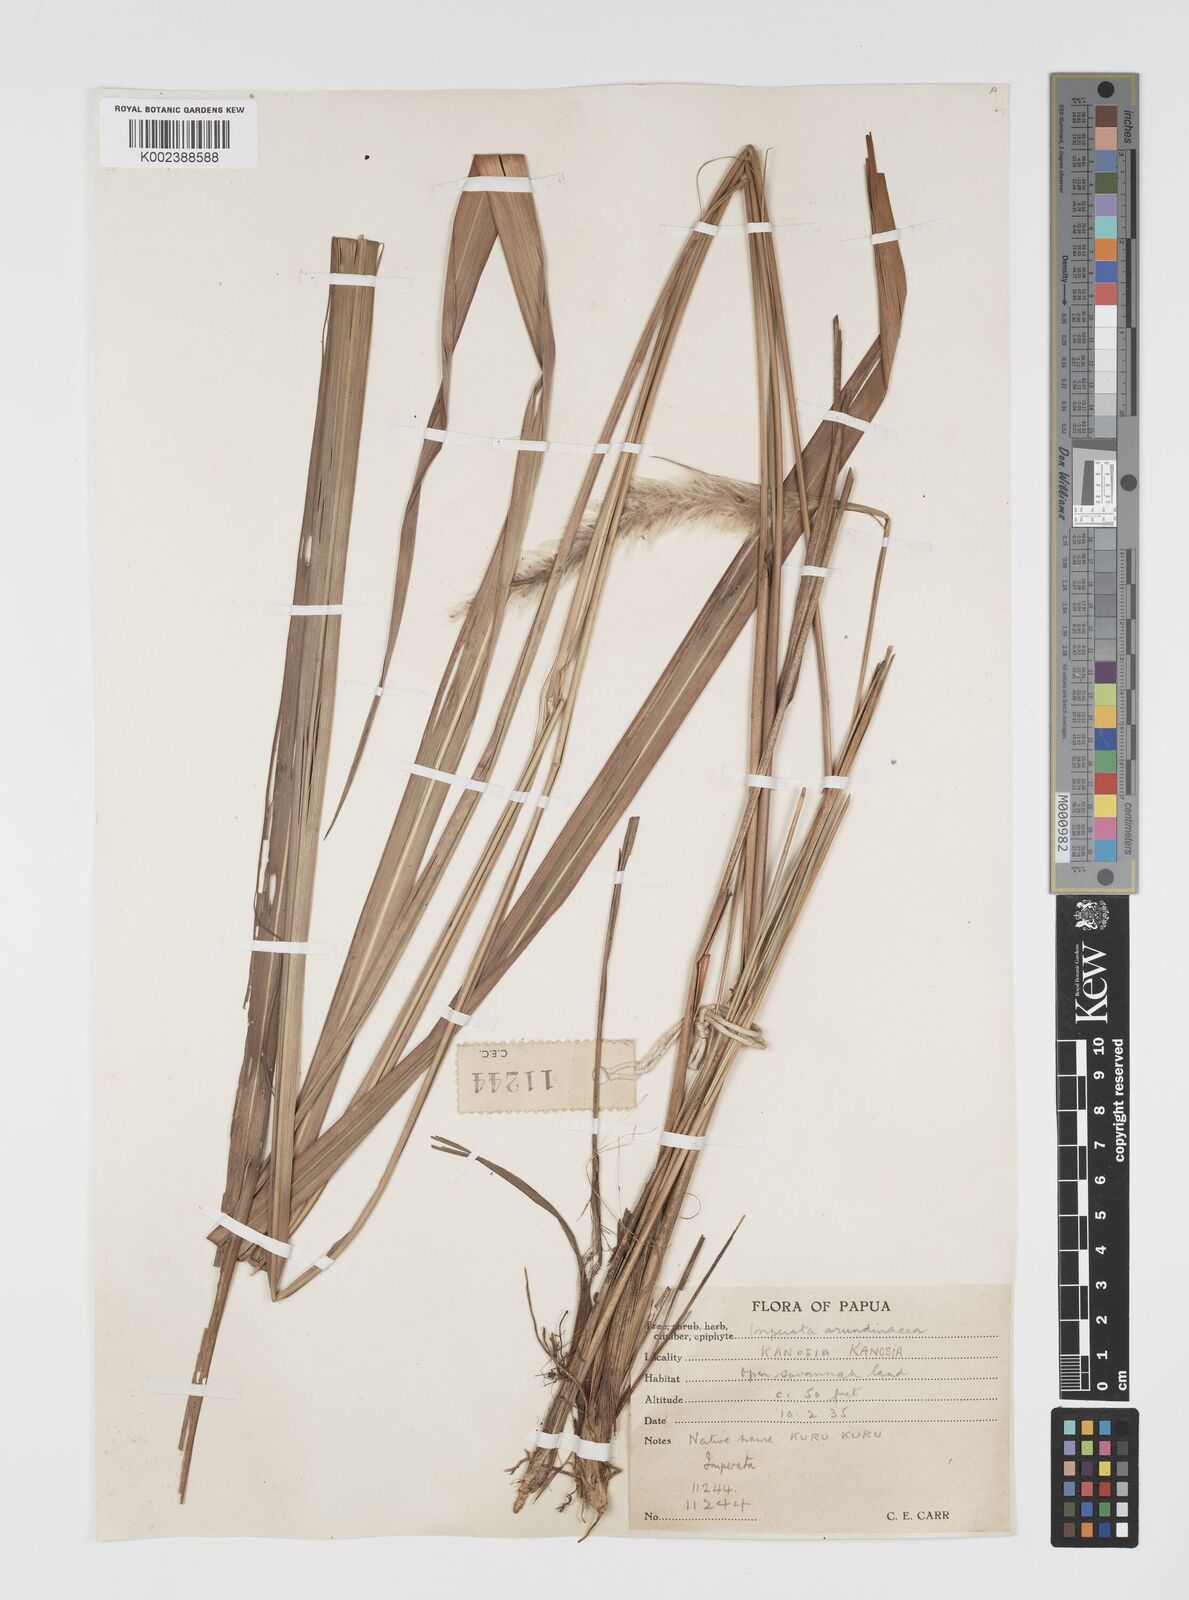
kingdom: Plantae
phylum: Tracheophyta
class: Liliopsida
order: Poales
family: Poaceae
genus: Imperata
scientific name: Imperata cylindrica
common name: Cogongrass
